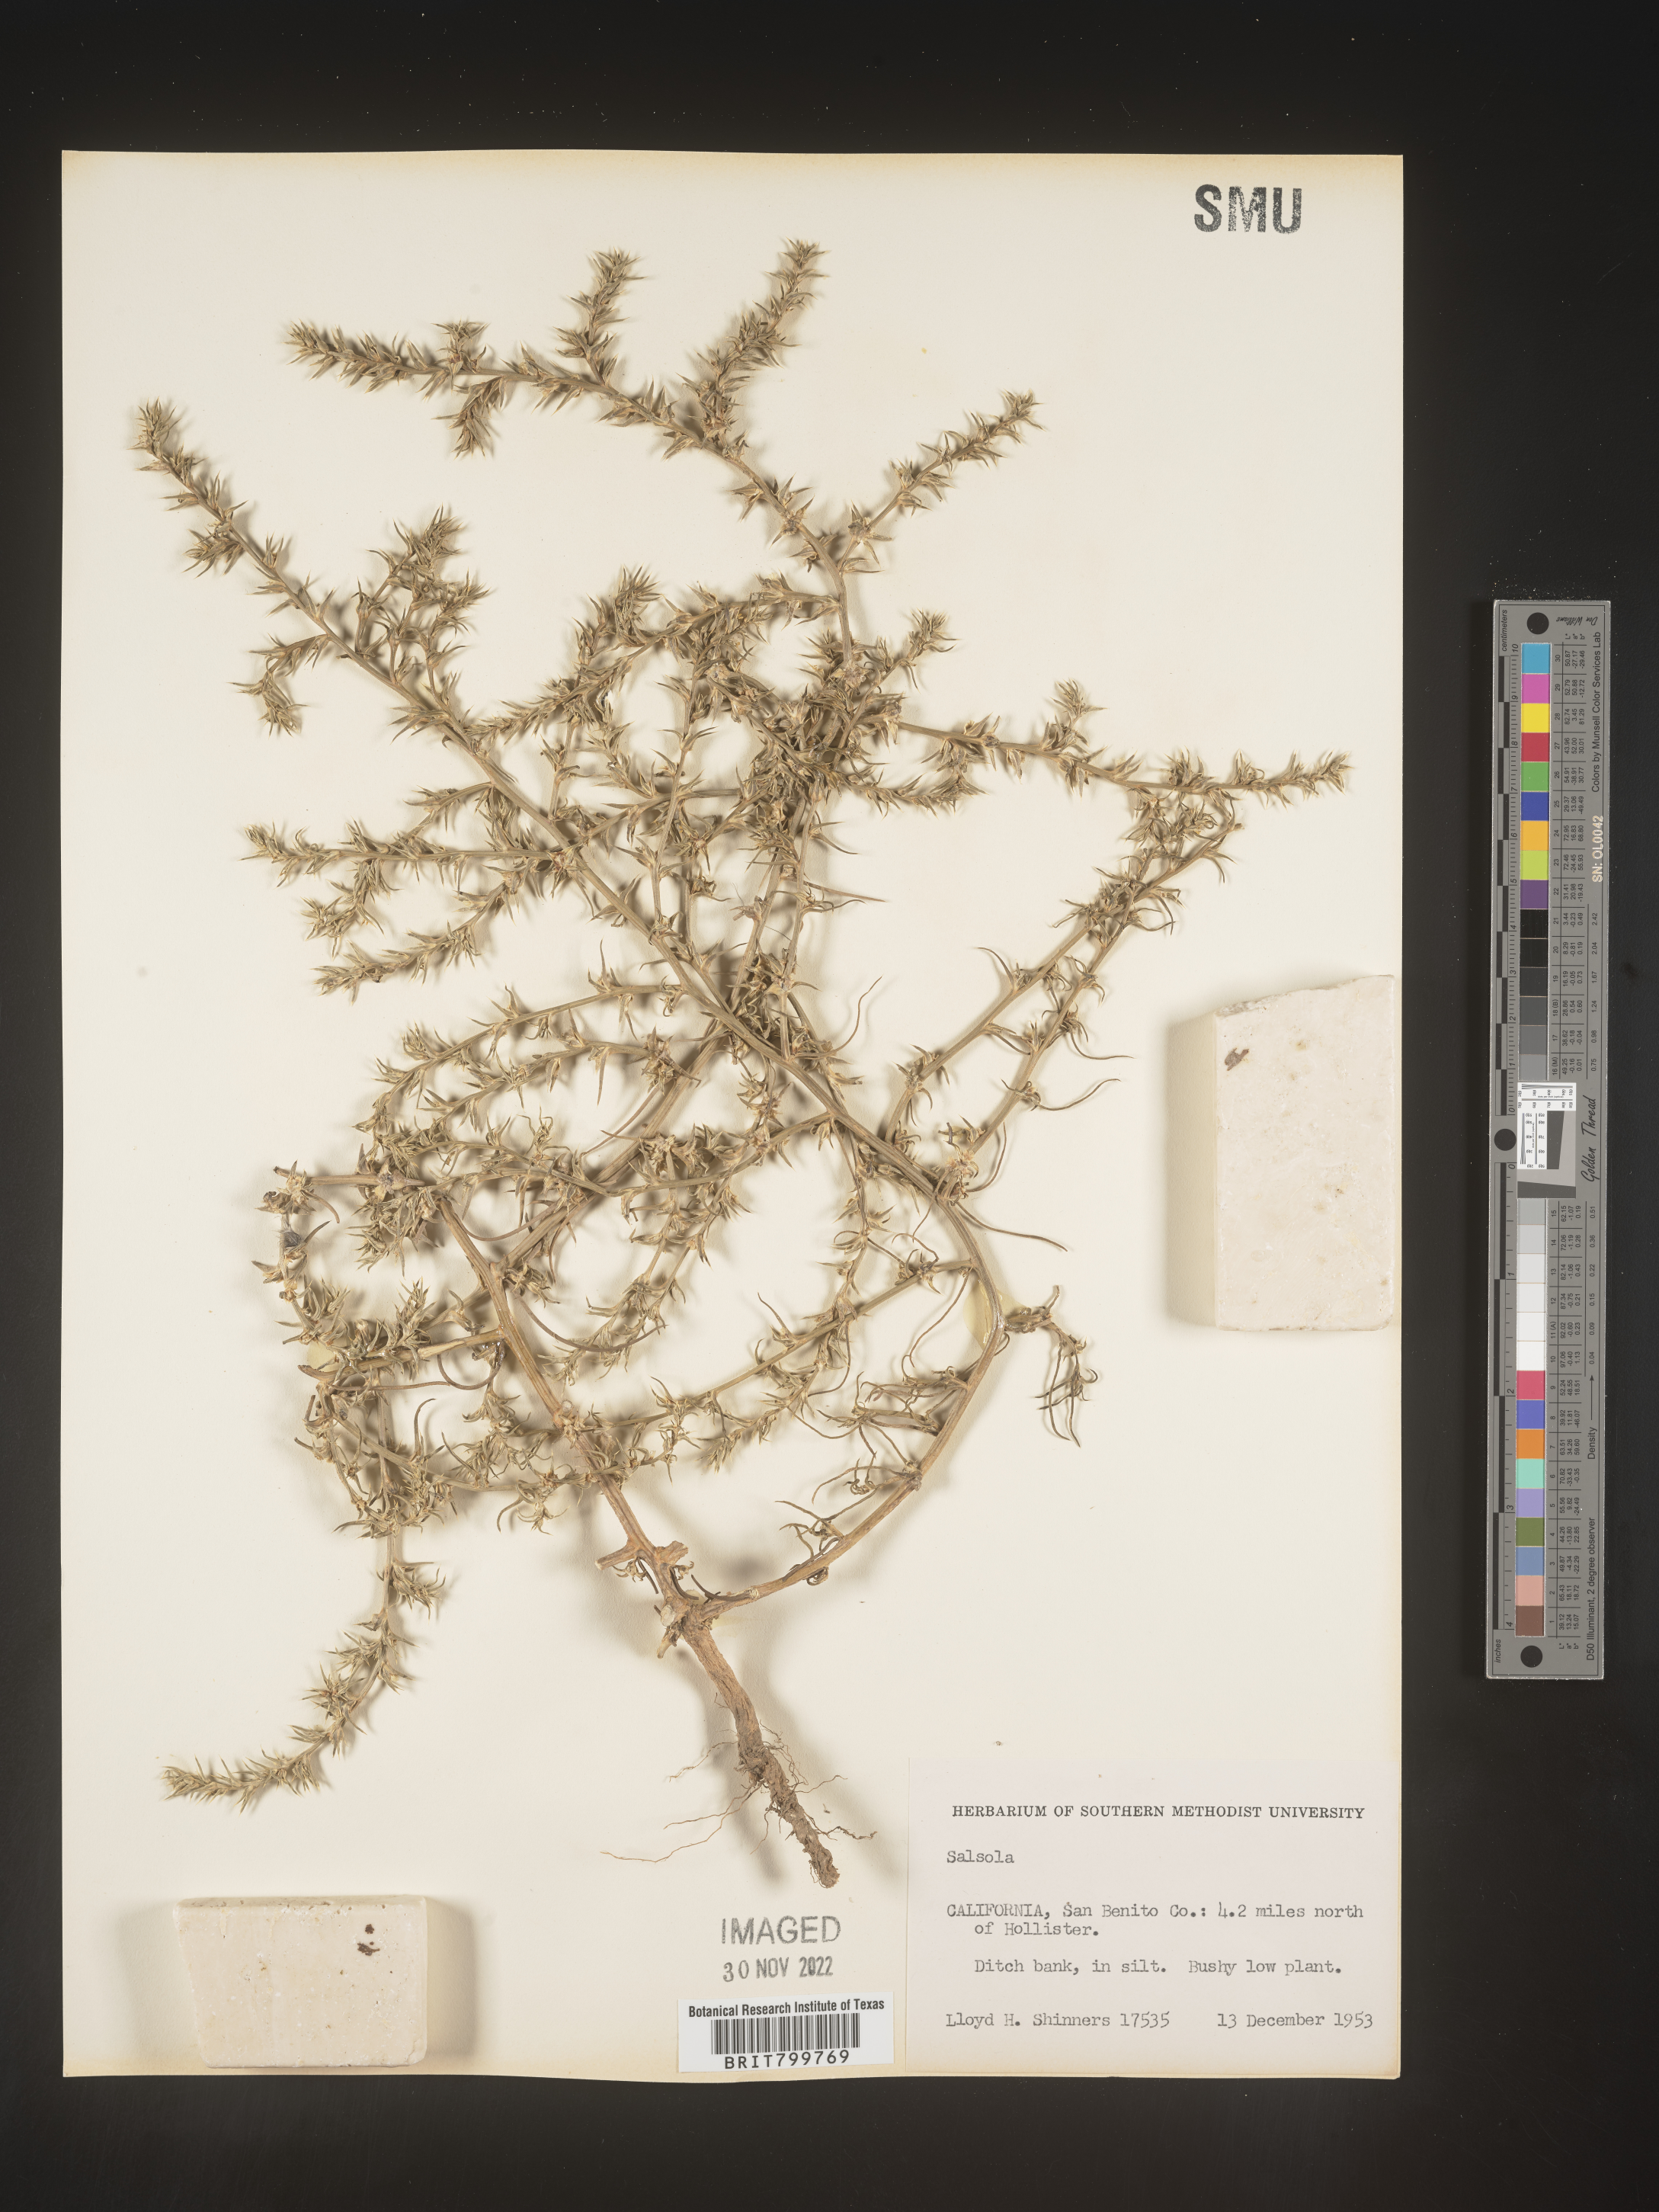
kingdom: Plantae
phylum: Tracheophyta
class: Magnoliopsida
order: Caryophyllales
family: Amaranthaceae
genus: Salsola
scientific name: Salsola tragus
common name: Prickly russian thistle
